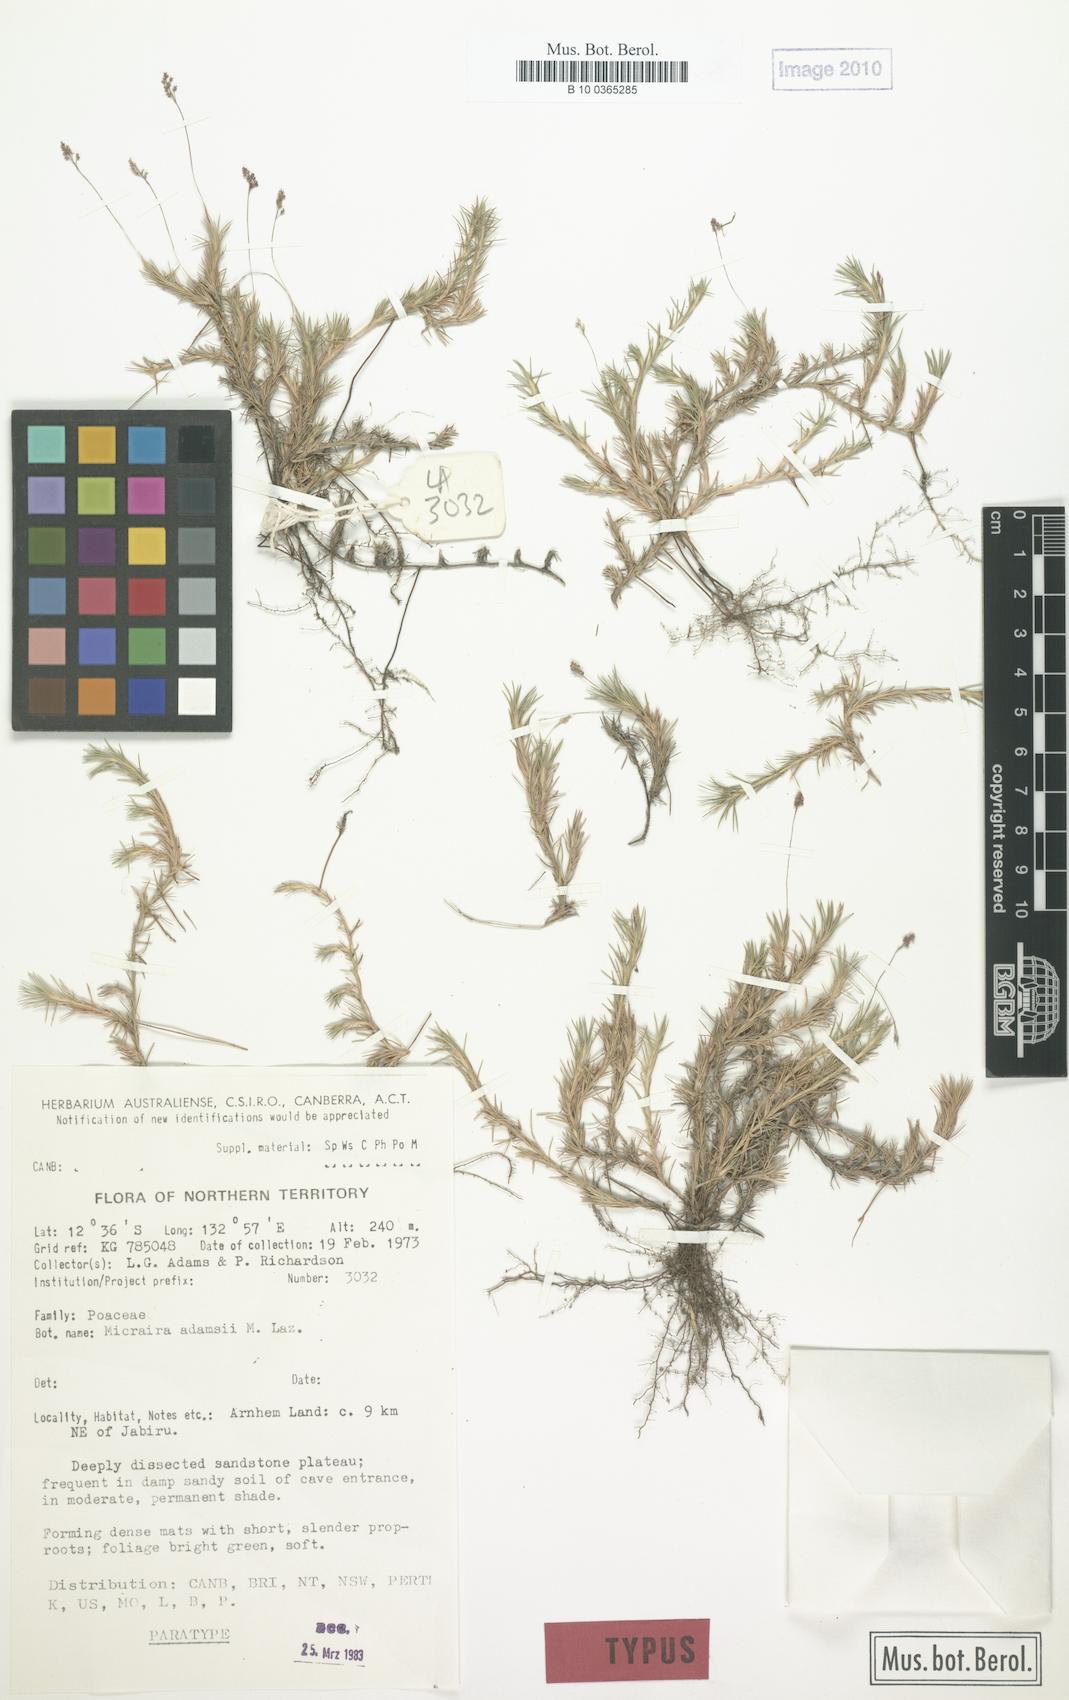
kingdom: Plantae
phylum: Tracheophyta
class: Liliopsida
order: Poales
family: Poaceae
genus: Micraira
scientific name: Micraira adamsii
